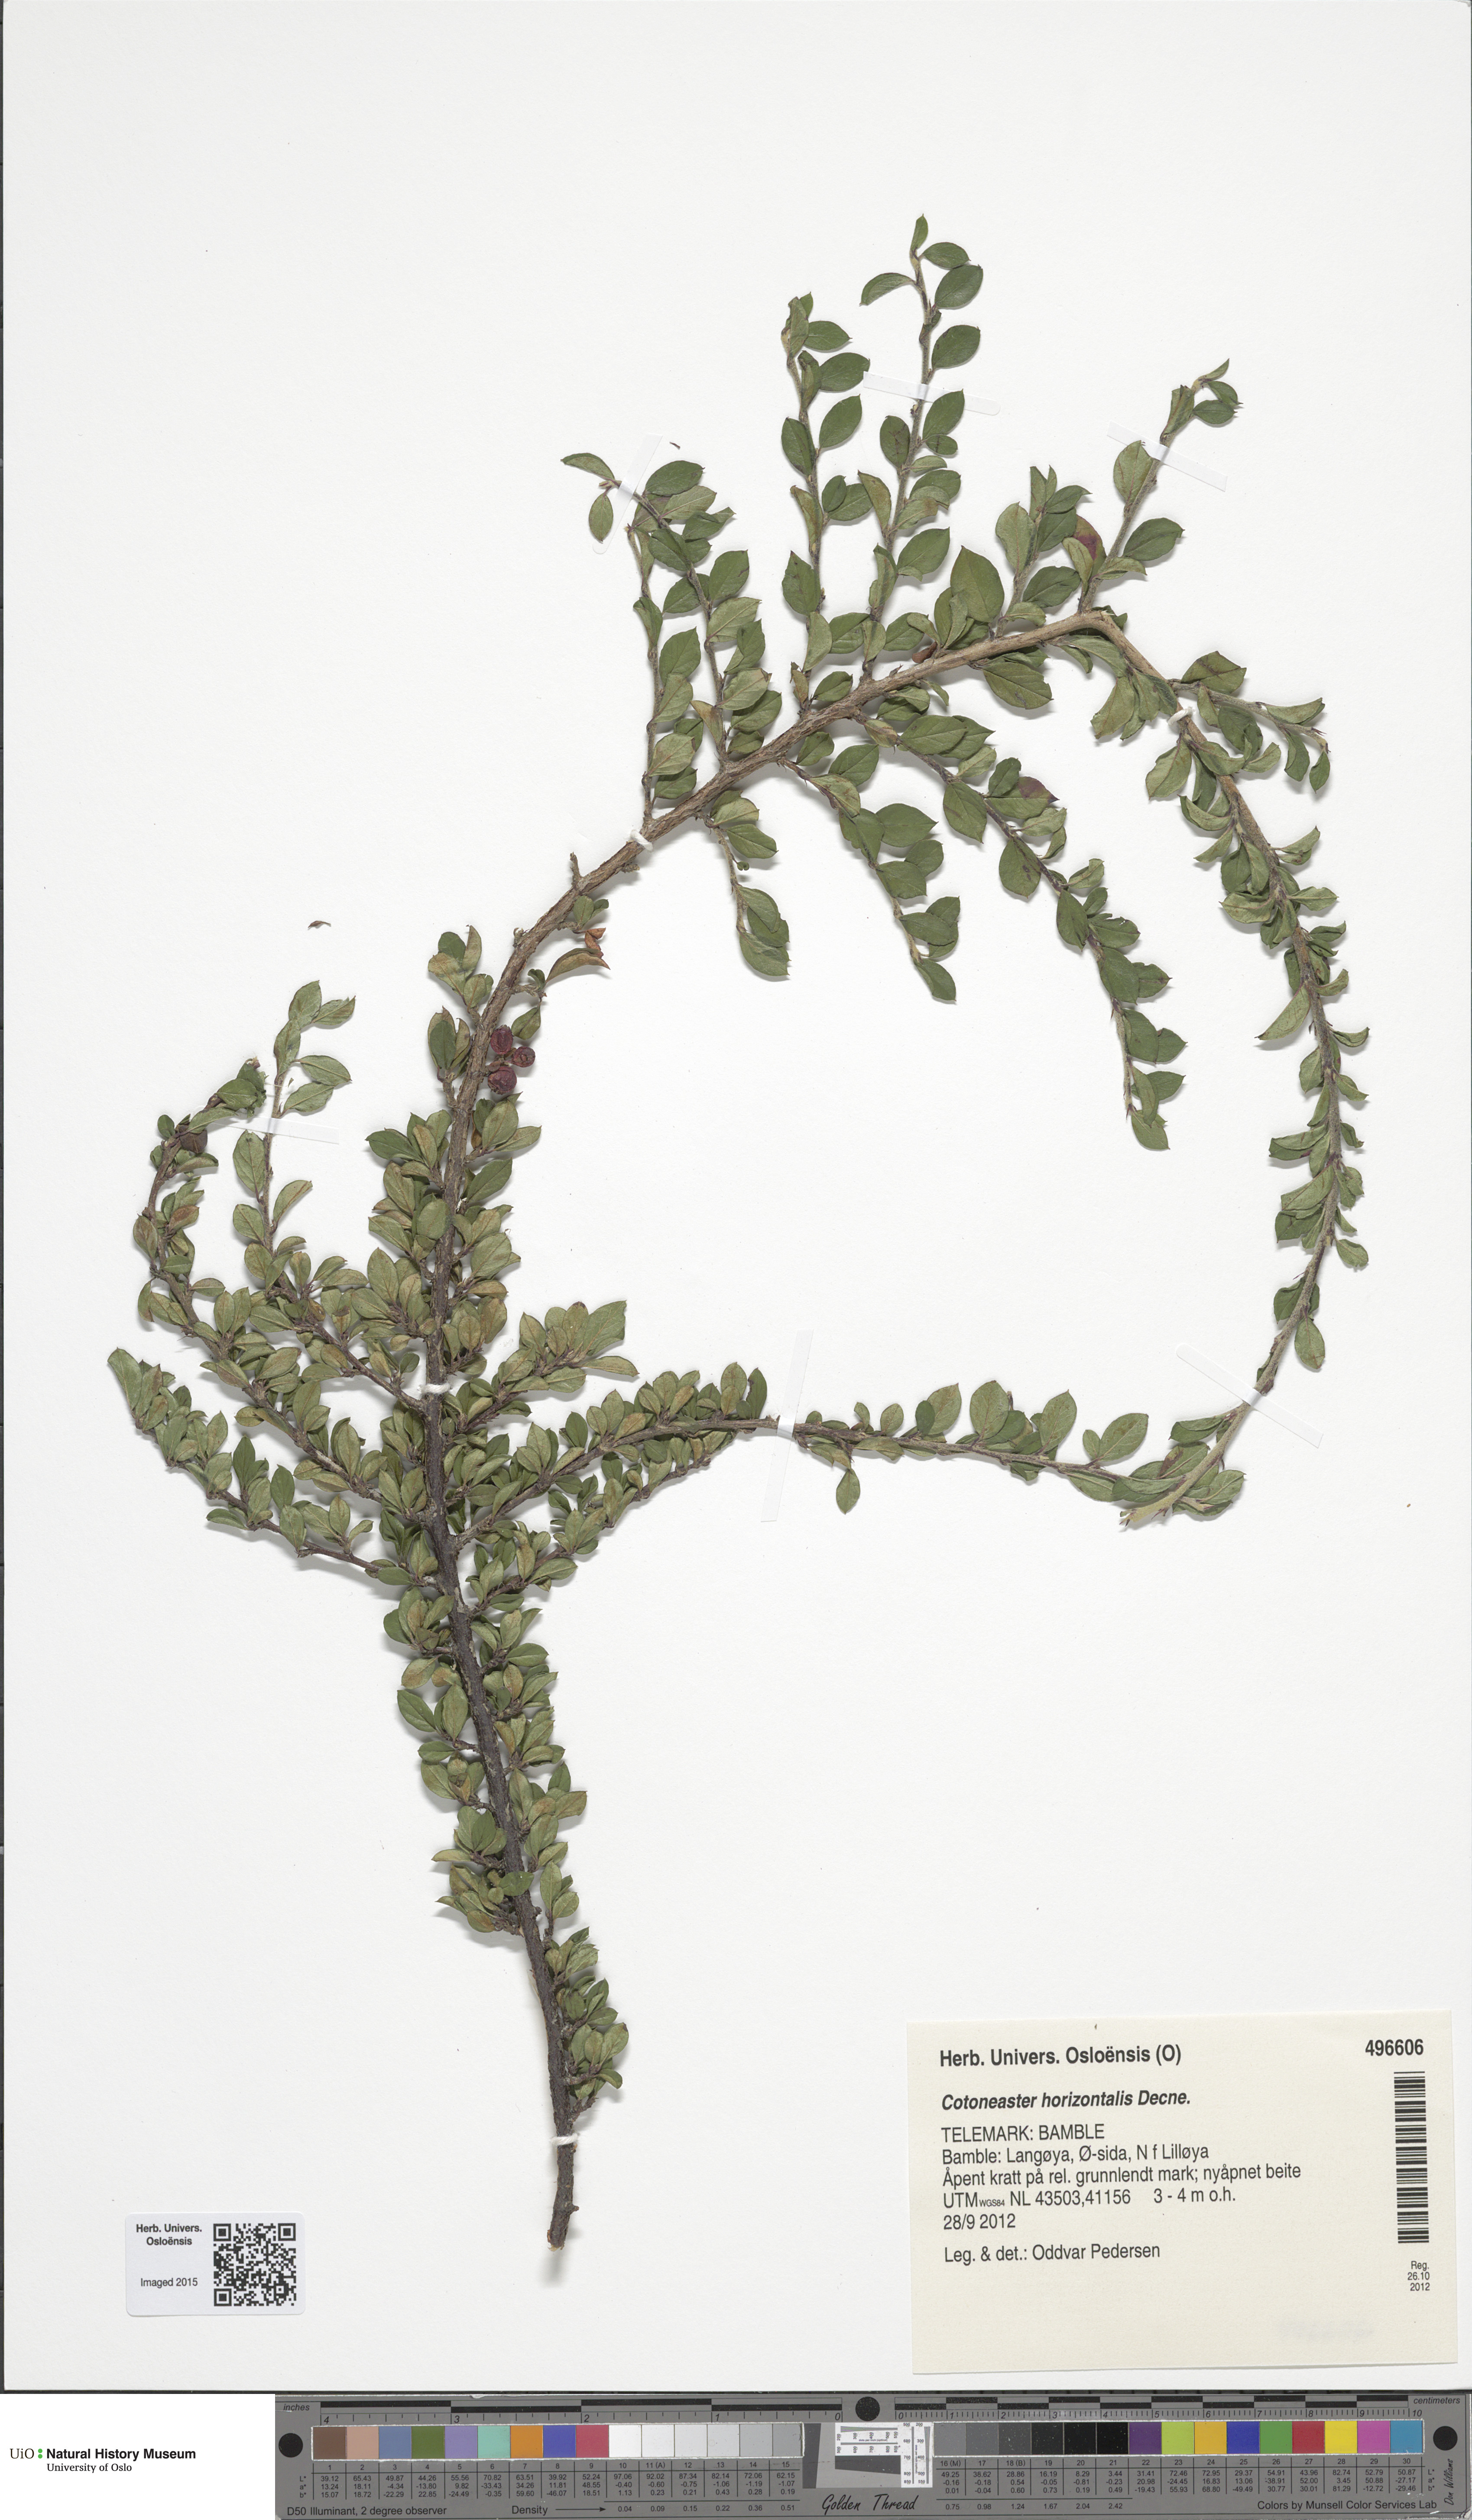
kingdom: Plantae
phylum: Tracheophyta
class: Magnoliopsida
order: Rosales
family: Rosaceae
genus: Cotoneaster
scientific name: Cotoneaster horizontalis
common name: Wall cotoneaster
